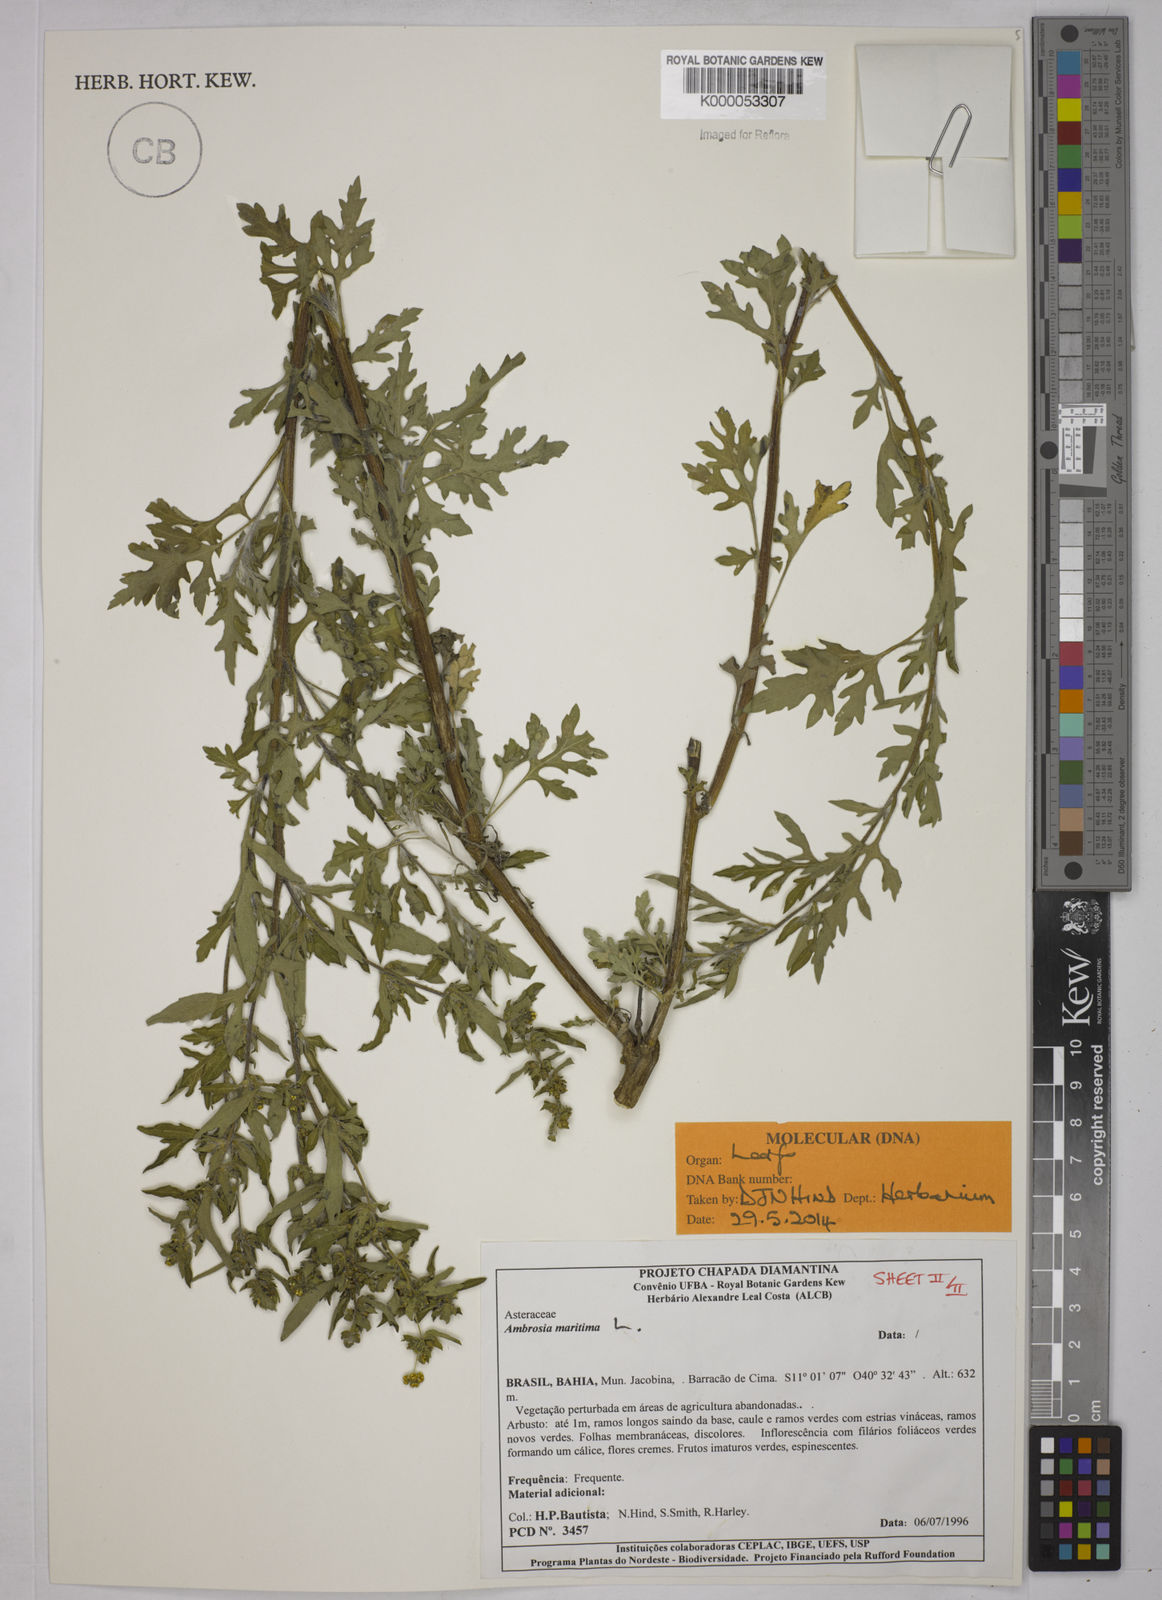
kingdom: Plantae
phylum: Tracheophyta
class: Magnoliopsida
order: Asterales
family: Asteraceae
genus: Ambrosia
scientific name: Ambrosia maritima
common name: Sea ambrosia
